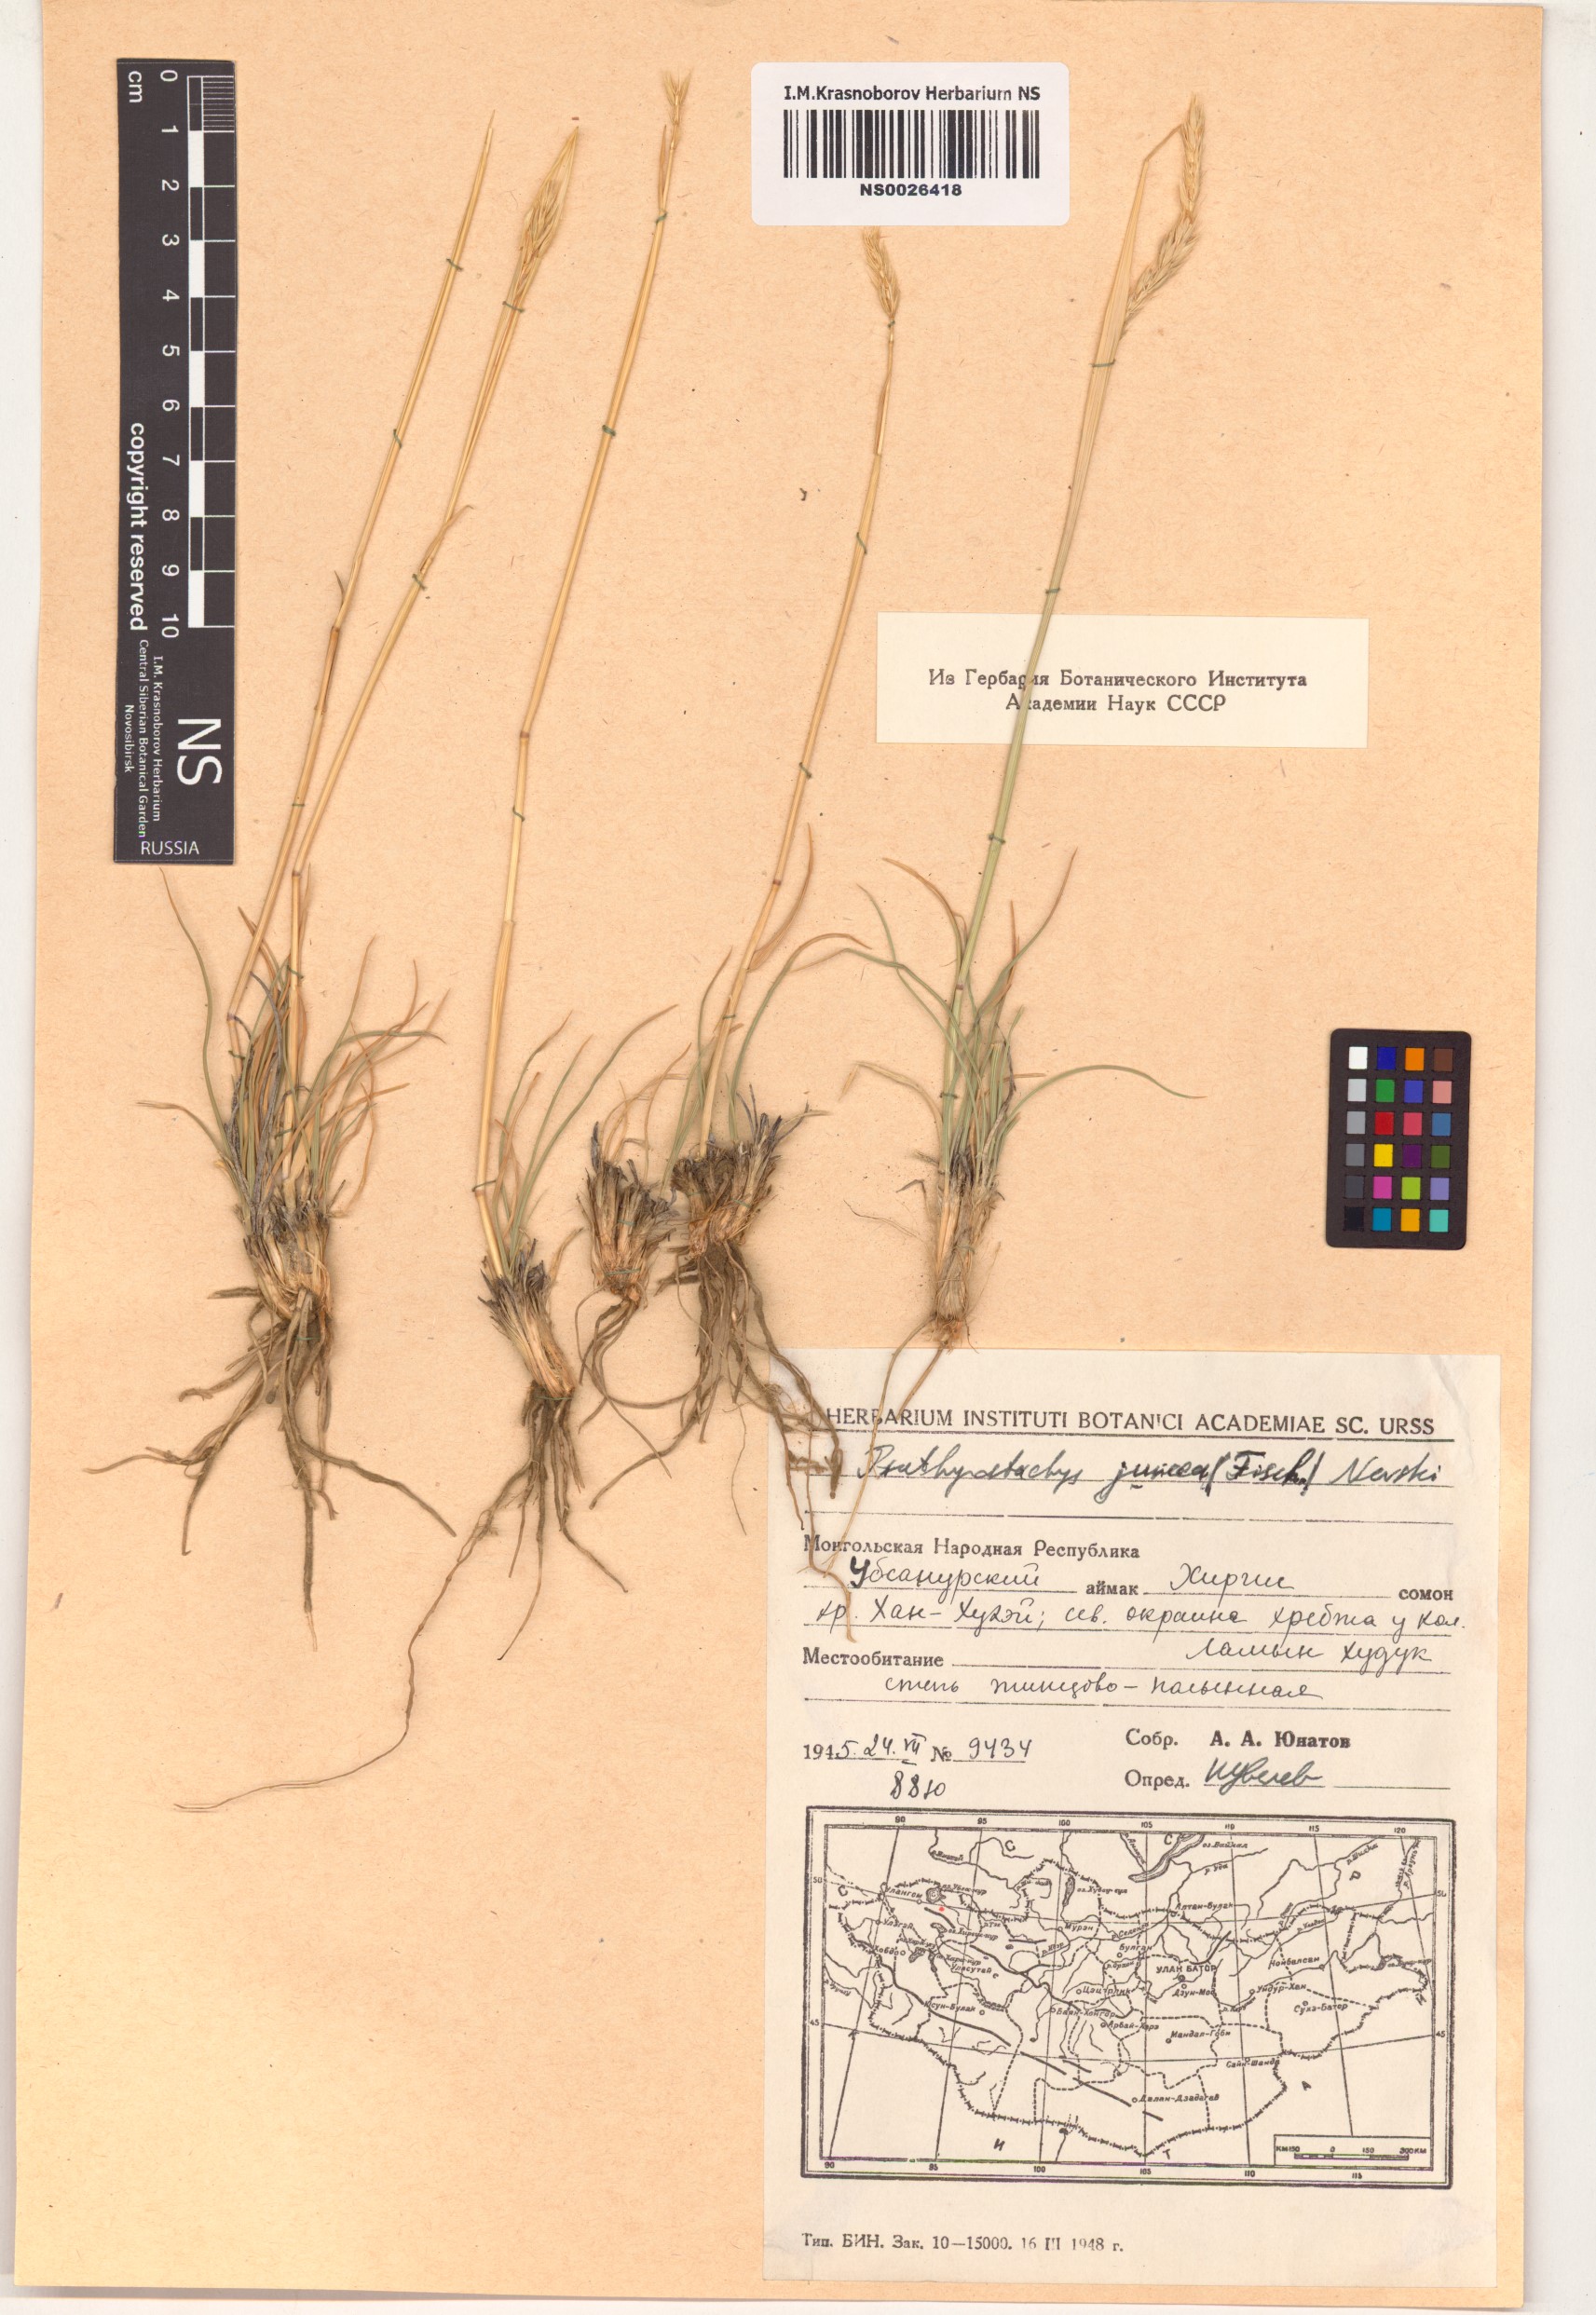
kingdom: Plantae
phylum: Tracheophyta
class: Liliopsida
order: Poales
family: Poaceae
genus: Psathyrostachys
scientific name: Psathyrostachys juncea
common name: Russian wildrye
